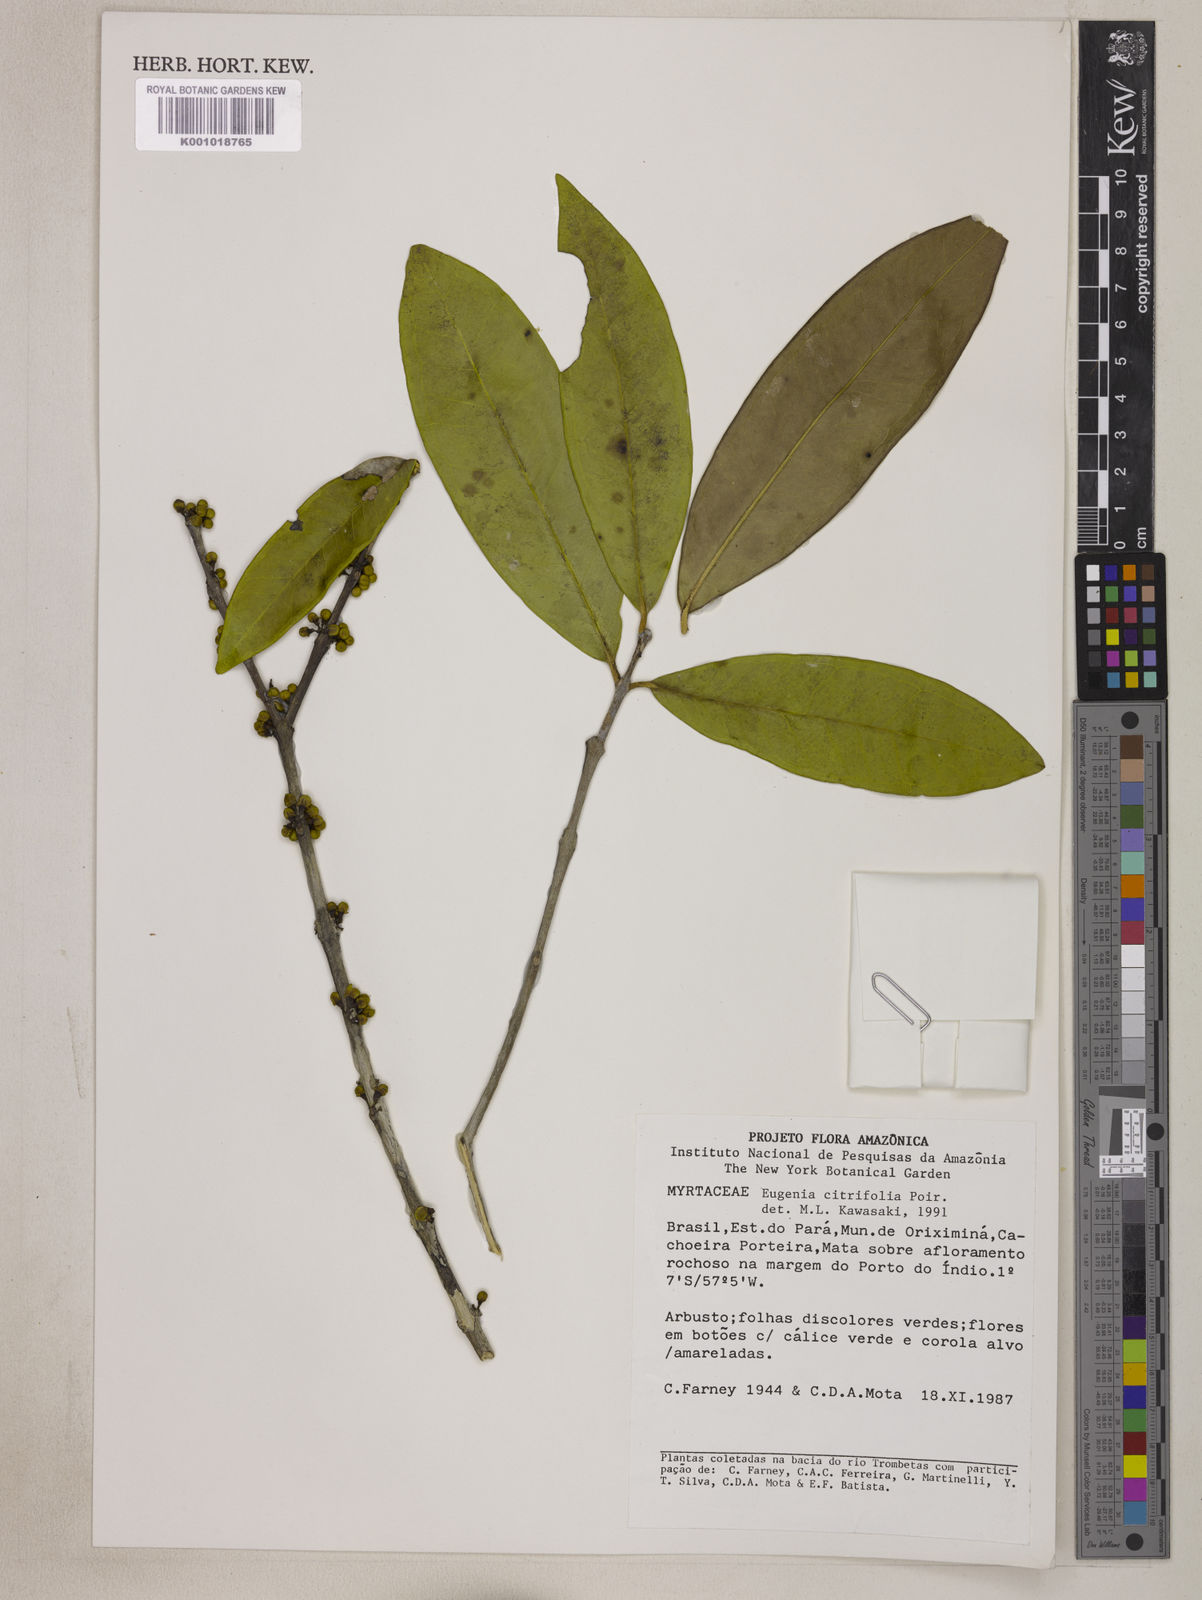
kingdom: Plantae
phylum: Tracheophyta
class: Magnoliopsida
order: Myrtales
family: Myrtaceae
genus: Eugenia
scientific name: Eugenia citrifolia
